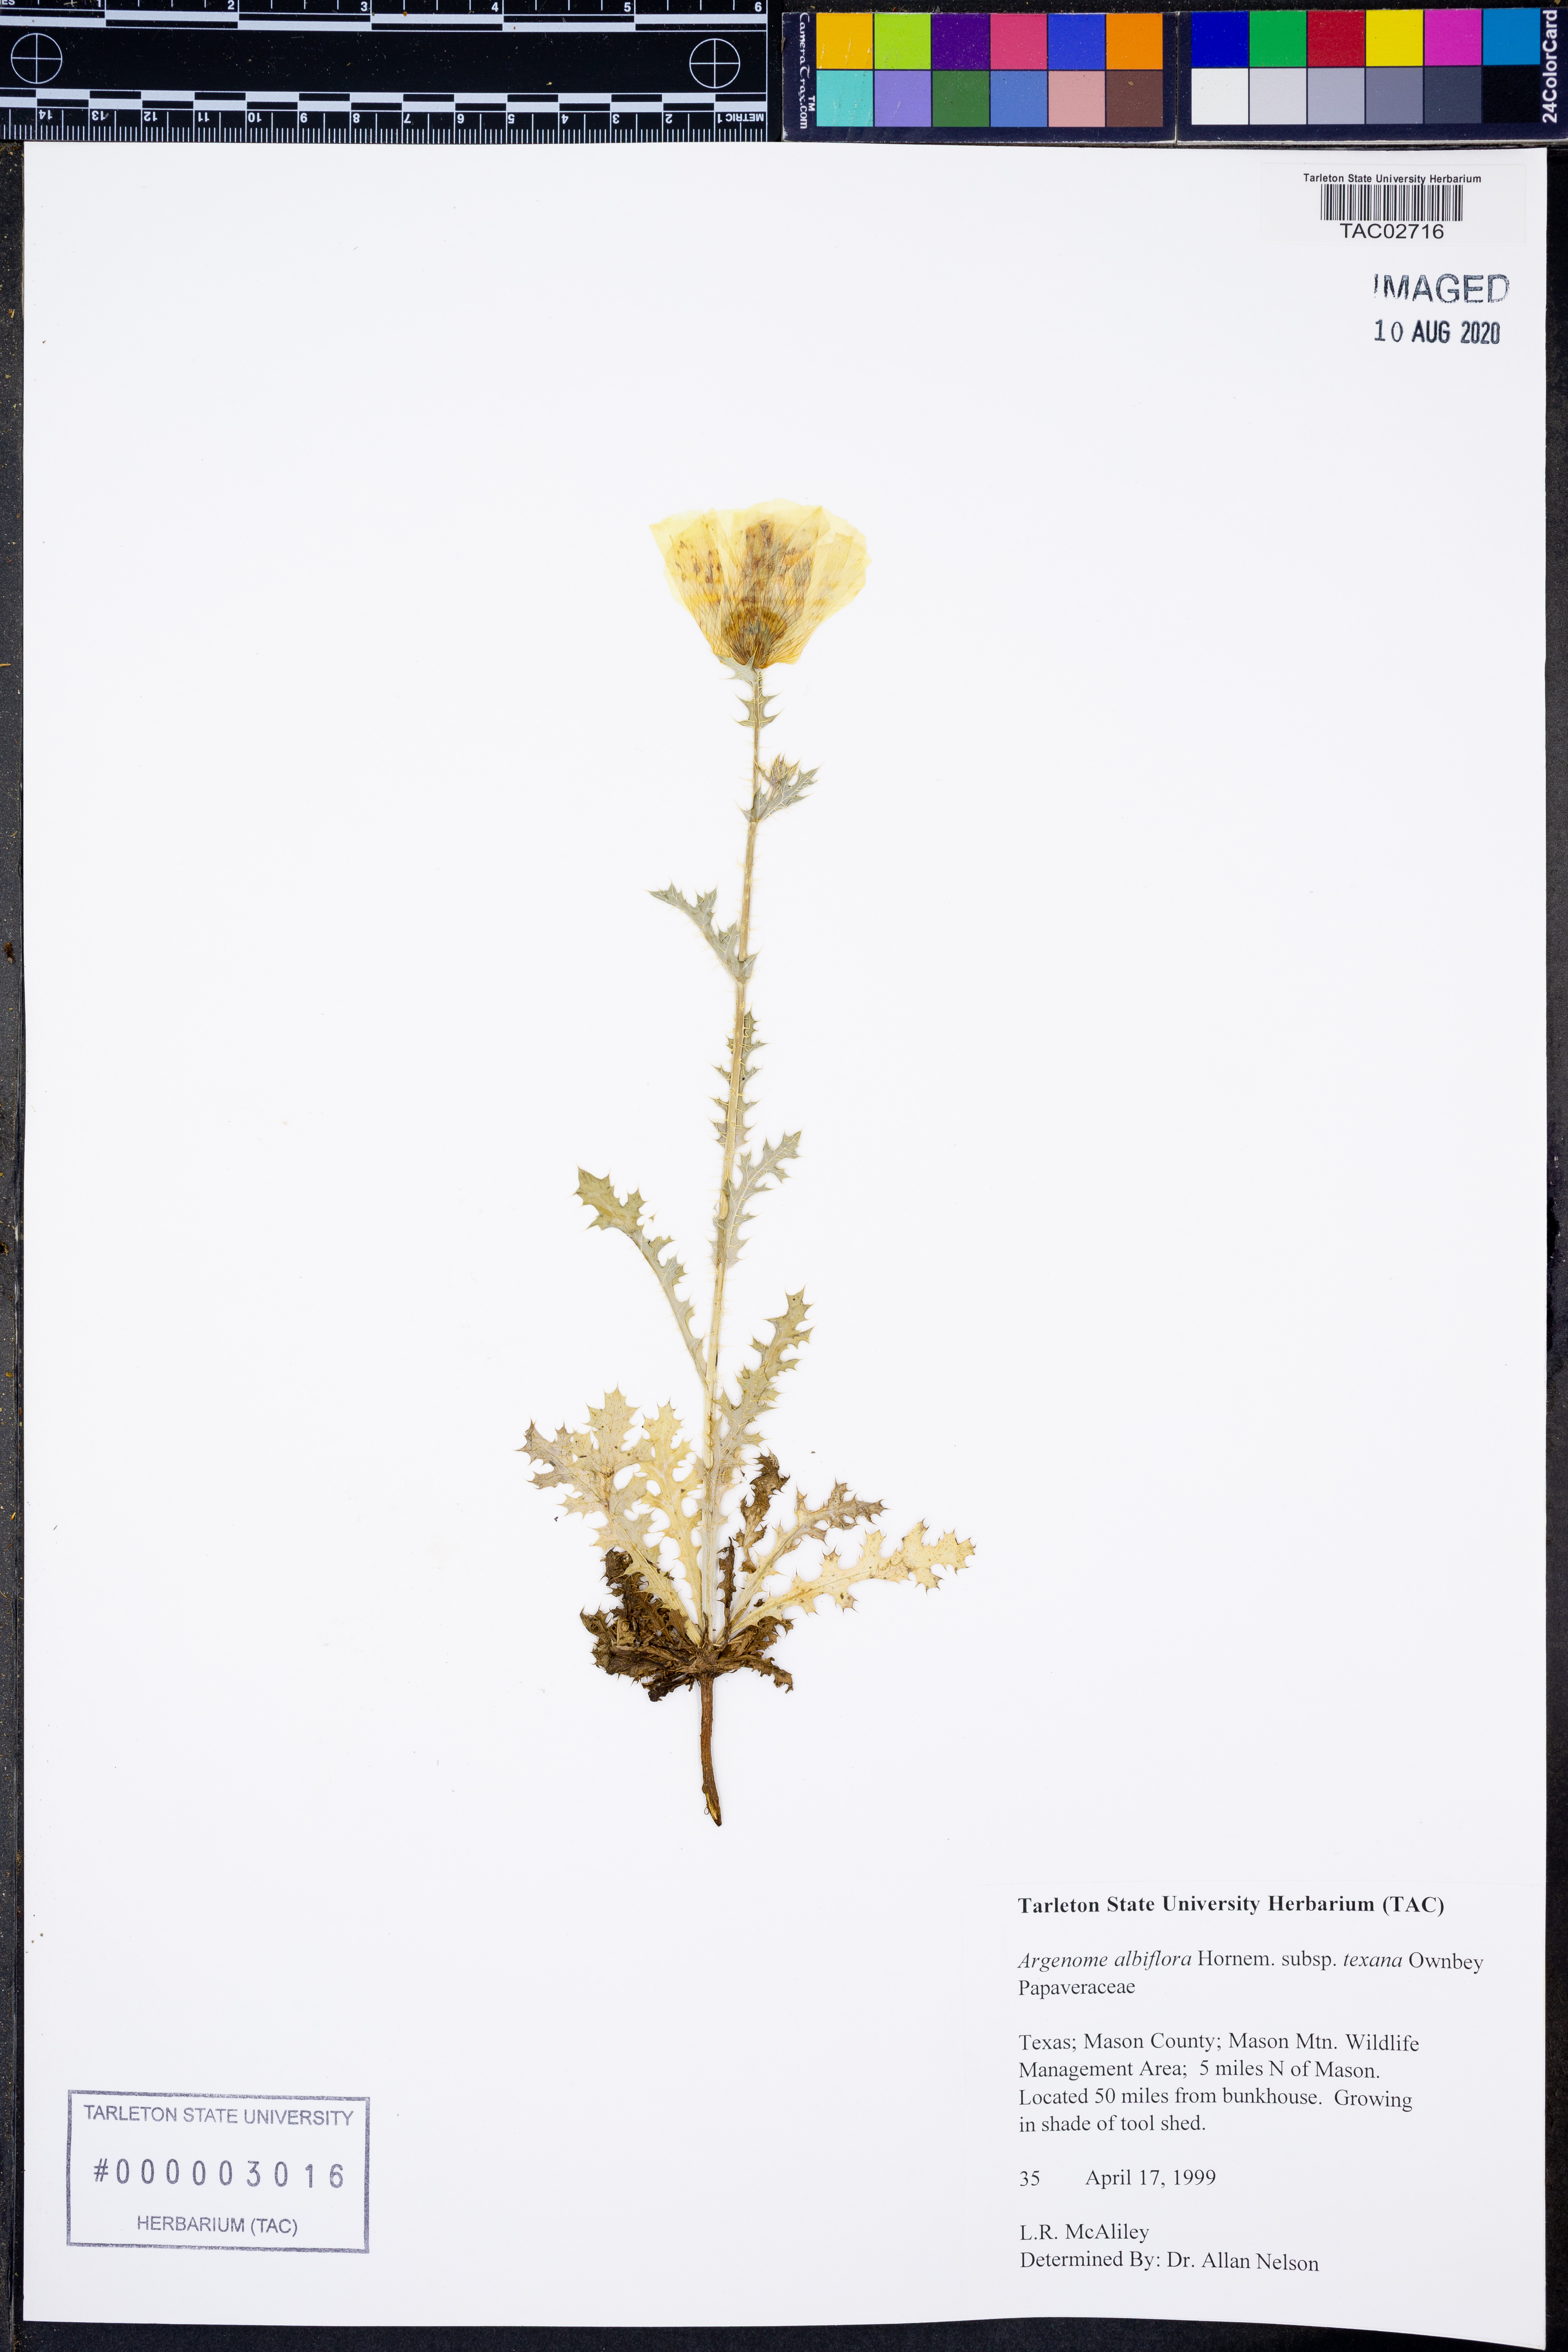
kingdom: Plantae
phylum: Tracheophyta
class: Magnoliopsida
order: Ranunculales
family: Papaveraceae
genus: Argemone
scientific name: Argemone albiflora
